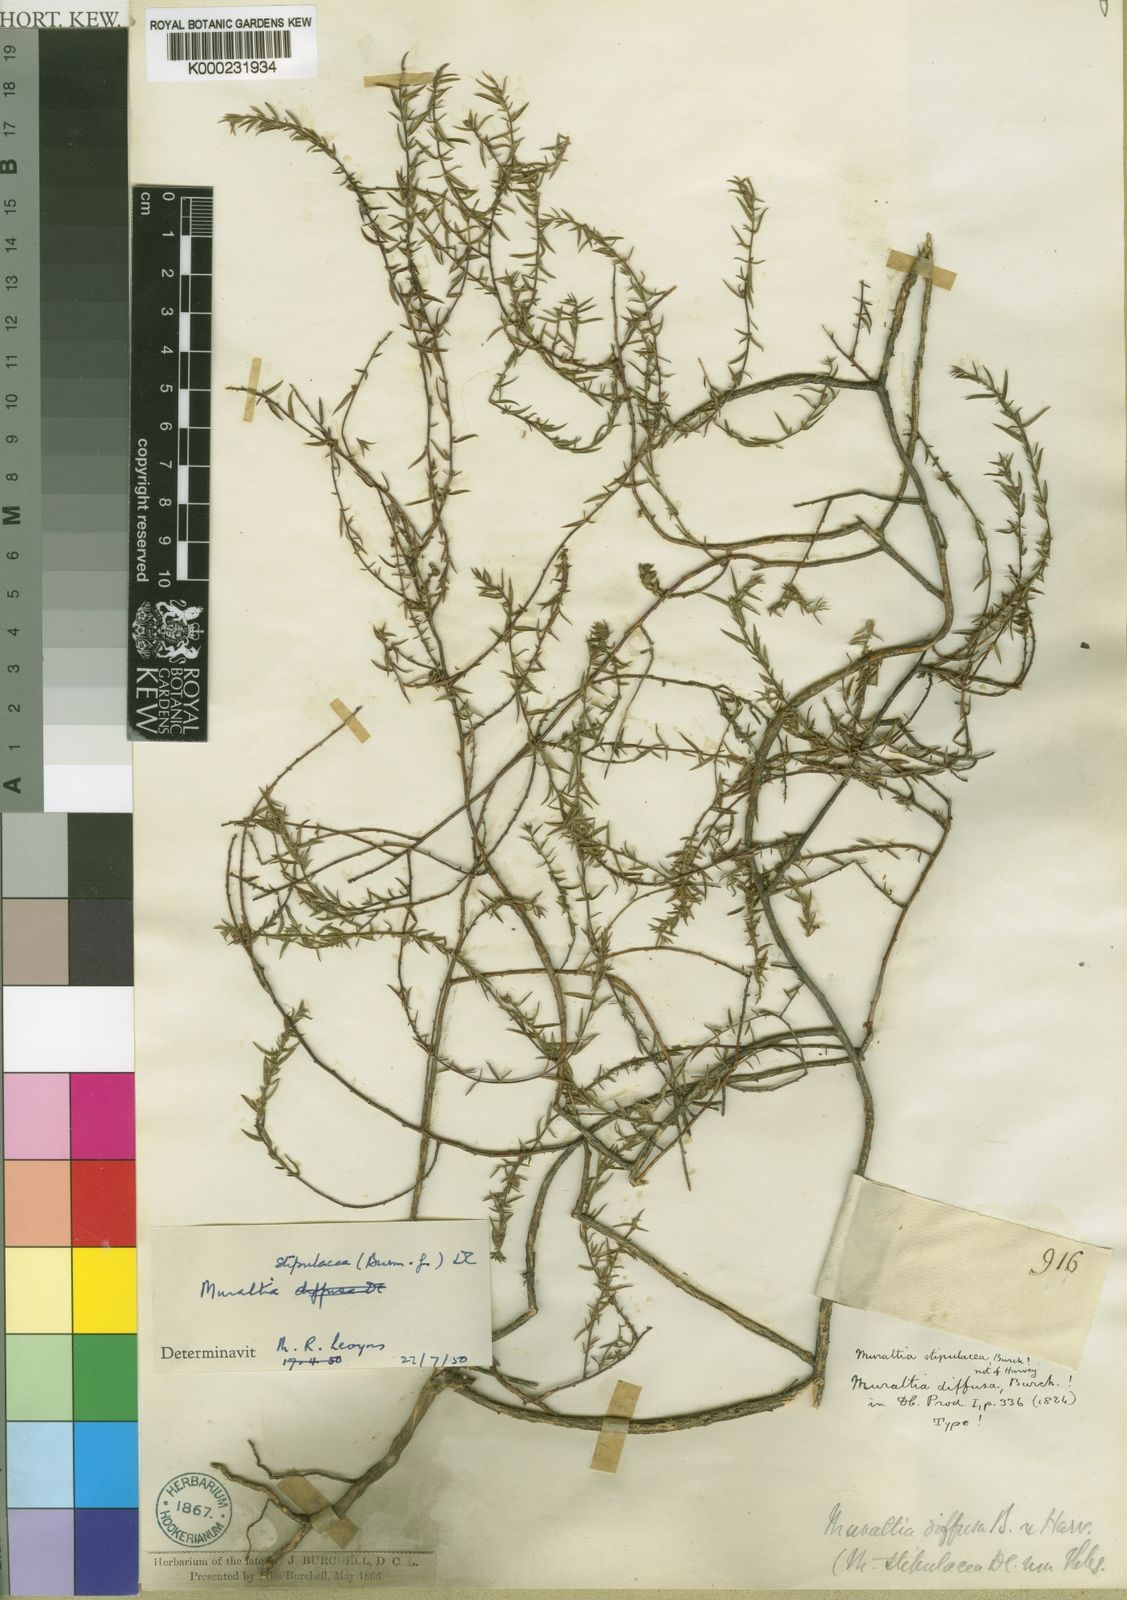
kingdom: Plantae
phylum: Tracheophyta
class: Magnoliopsida
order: Fabales
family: Polygalaceae
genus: Muraltia
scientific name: Muraltia stipulacea
